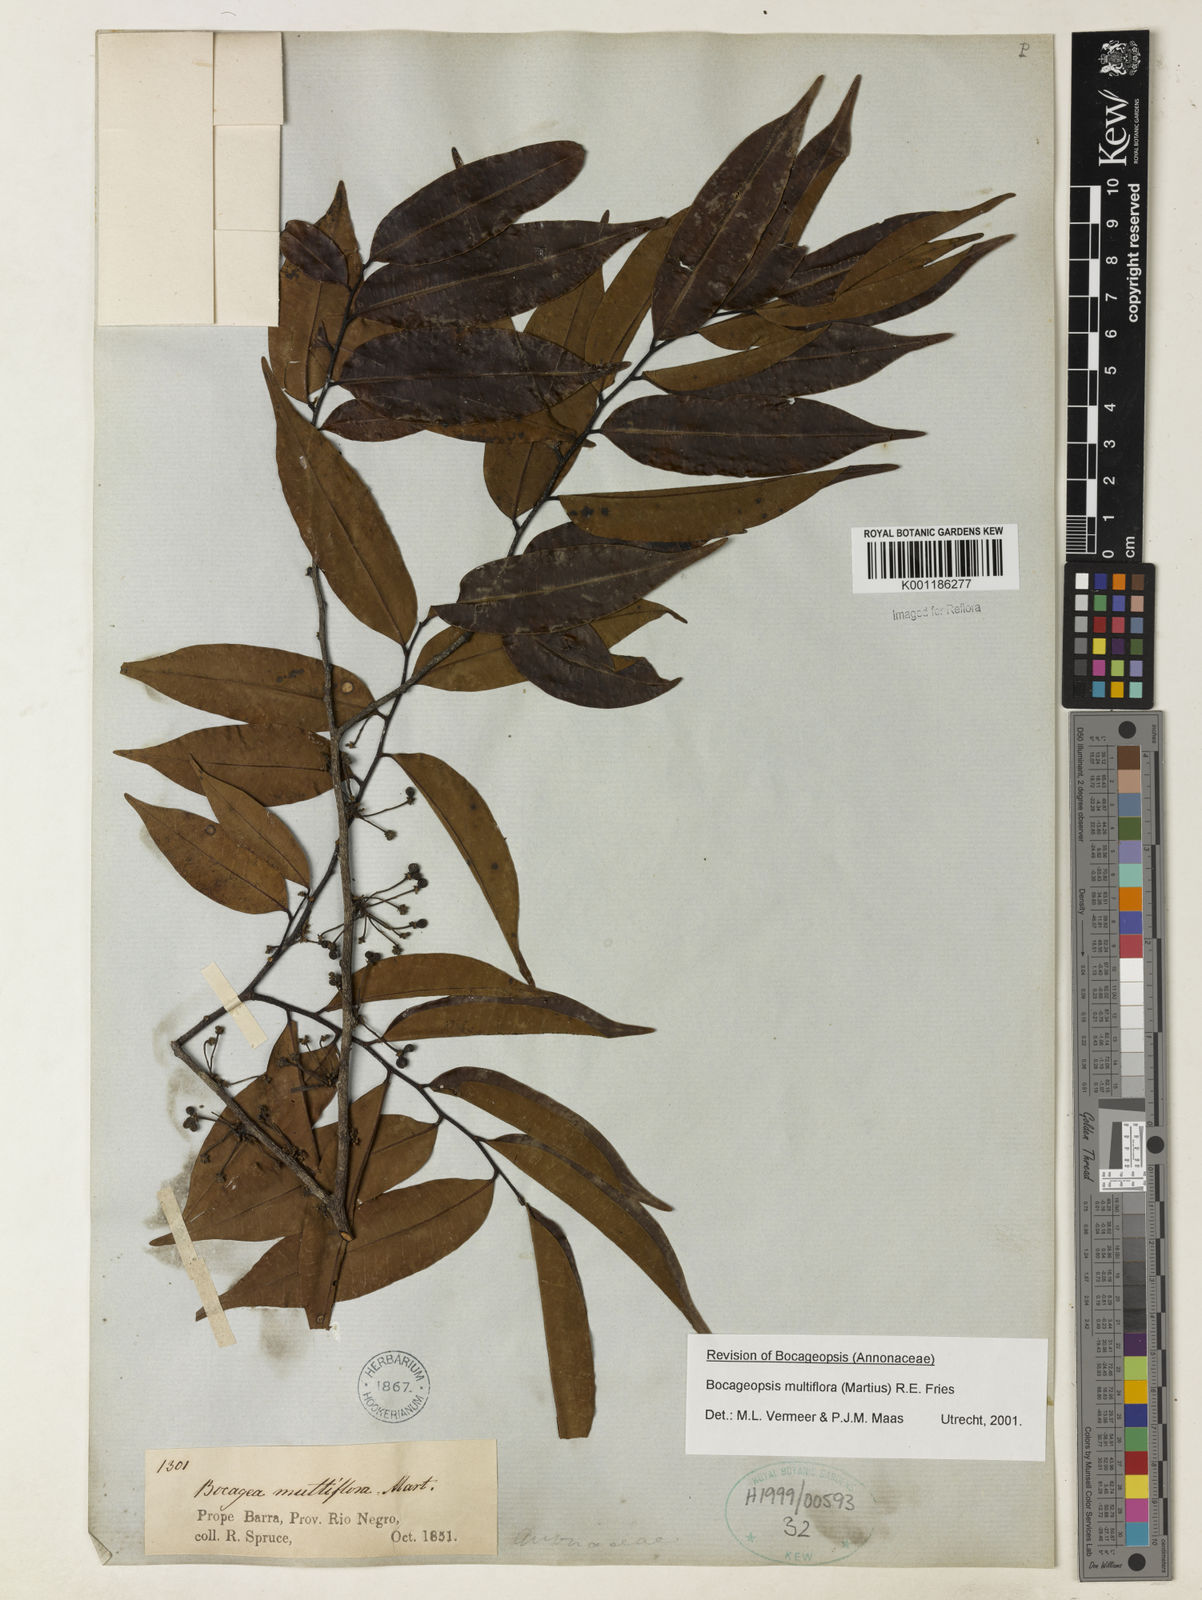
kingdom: Plantae
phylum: Tracheophyta
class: Magnoliopsida
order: Magnoliales
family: Annonaceae
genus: Bocageopsis
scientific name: Bocageopsis multiflora
